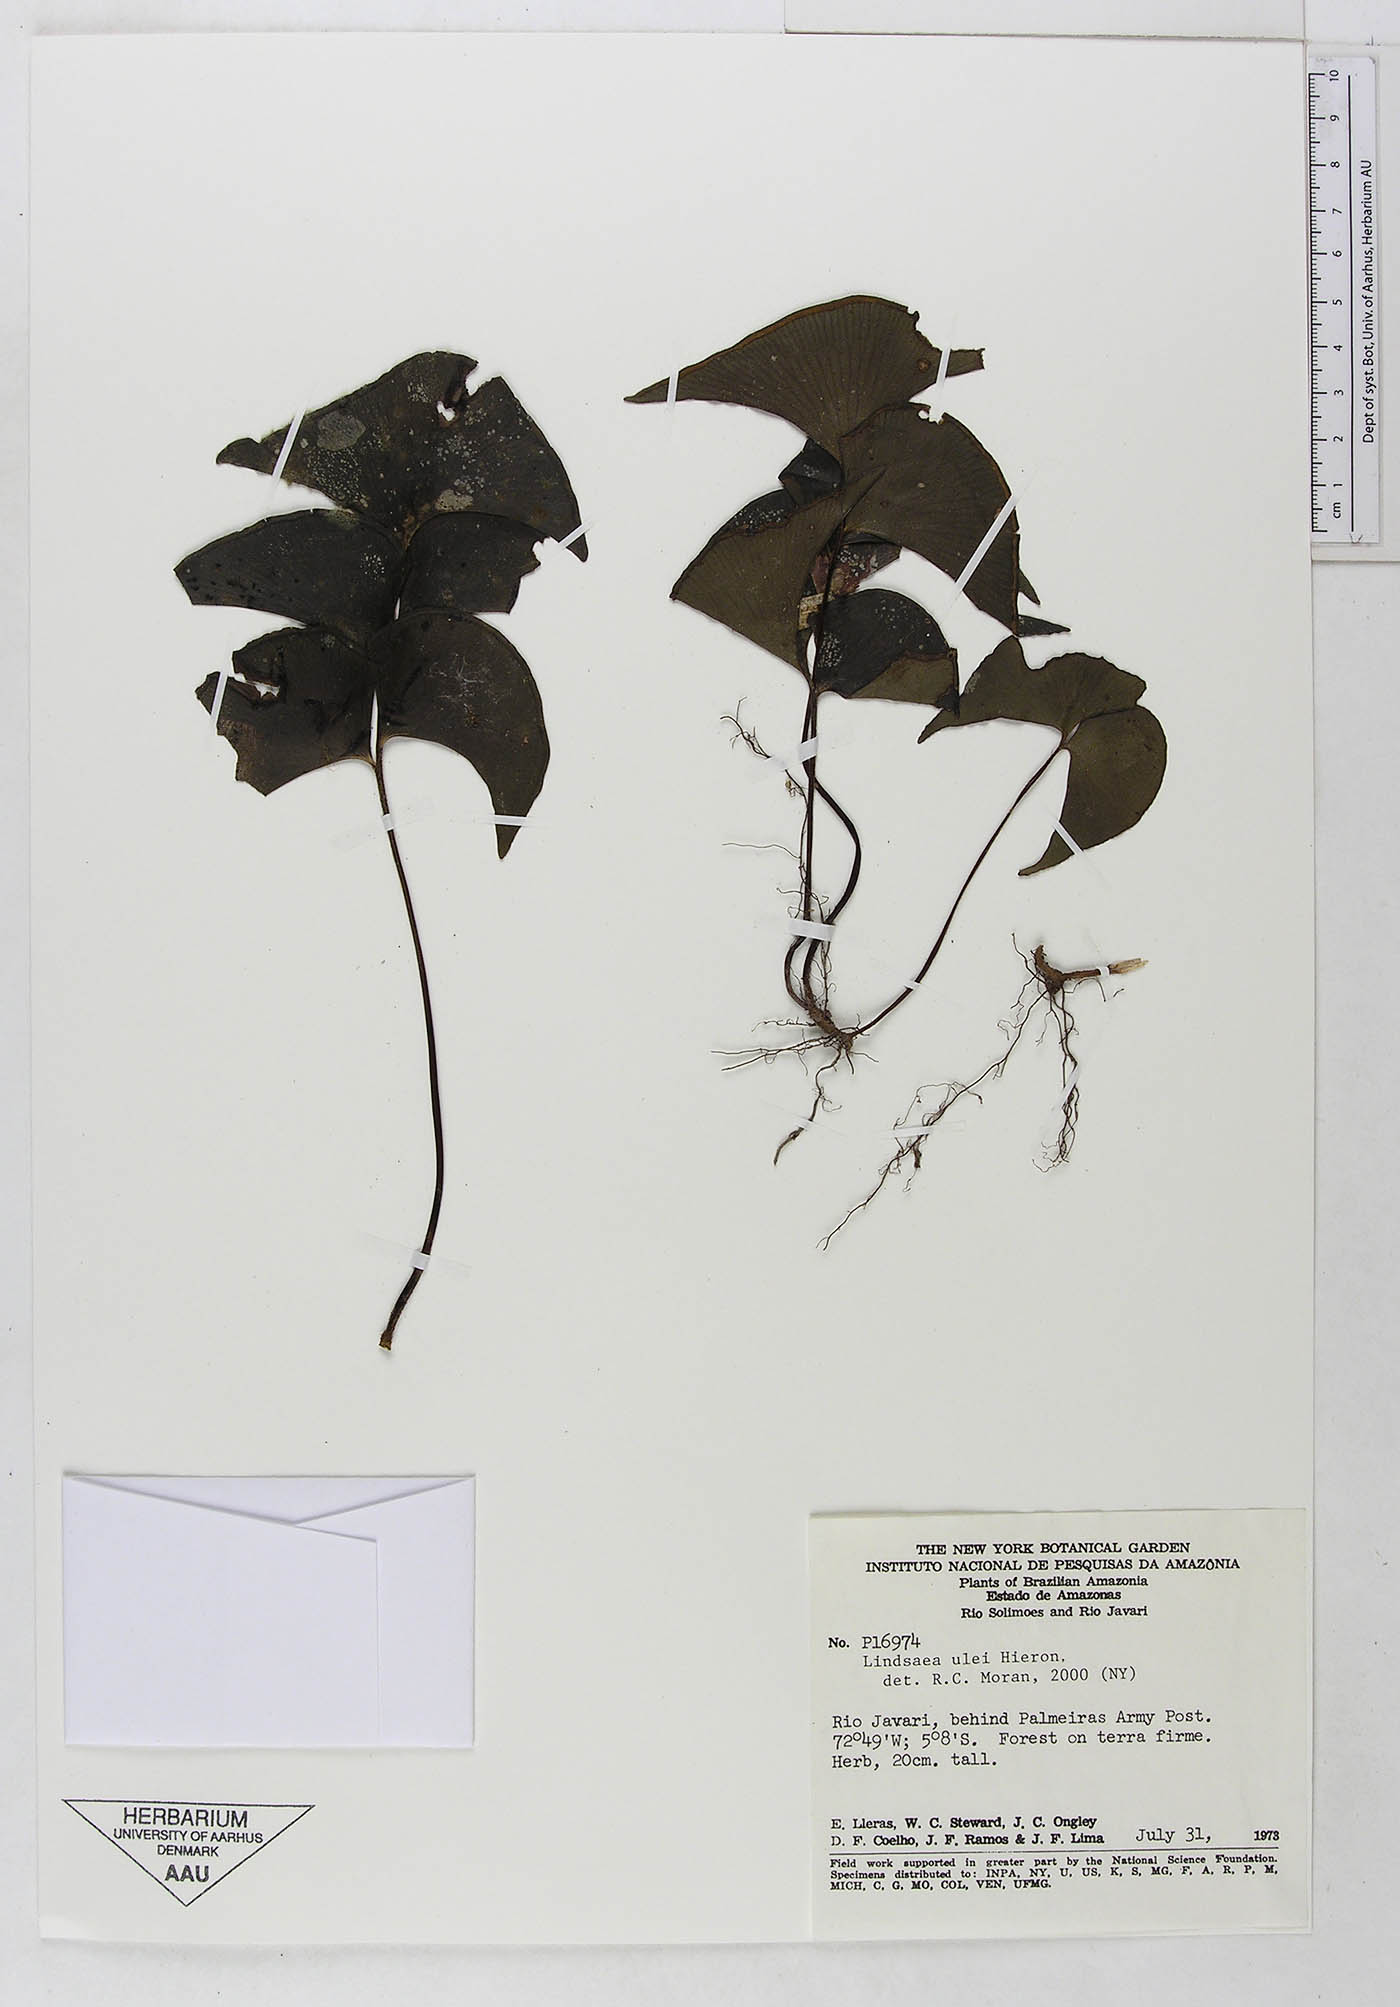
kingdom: Plantae
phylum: Tracheophyta
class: Polypodiopsida
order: Polypodiales
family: Lindsaeaceae
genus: Lindsaea
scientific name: Lindsaea ulei
